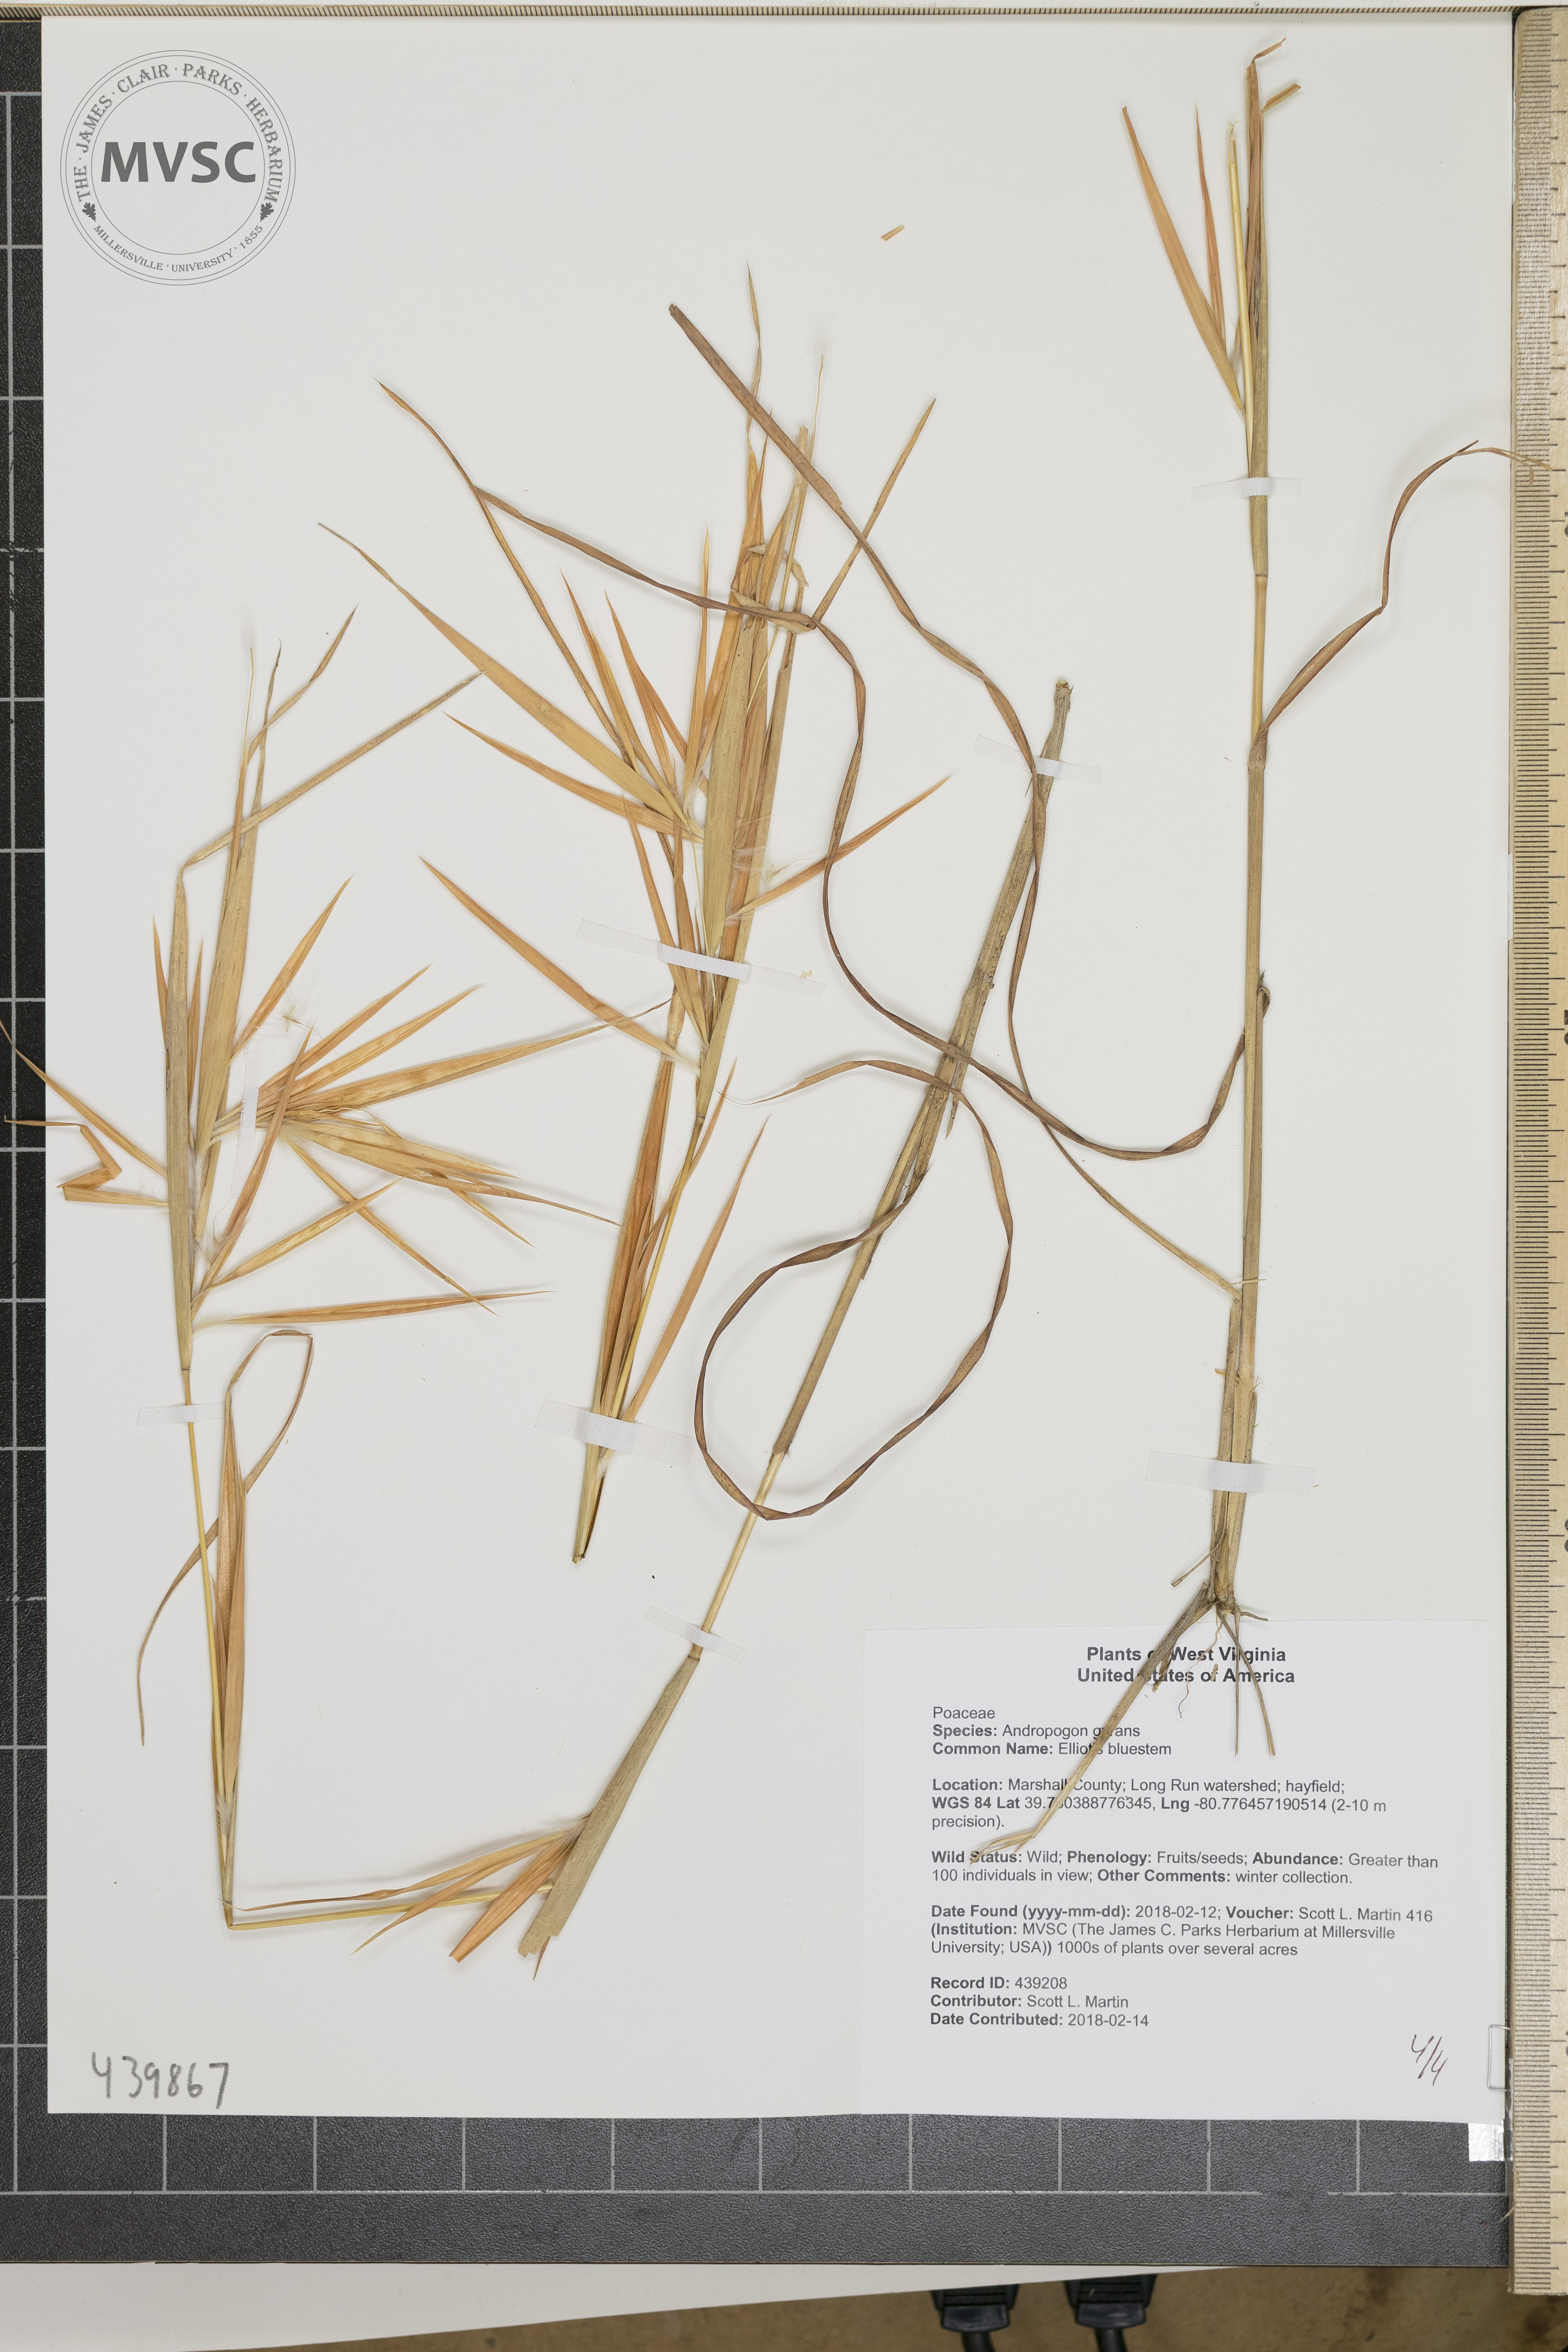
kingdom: Plantae
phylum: Tracheophyta
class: Liliopsida
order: Poales
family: Poaceae
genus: Andropogon
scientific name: Andropogon gyrans
